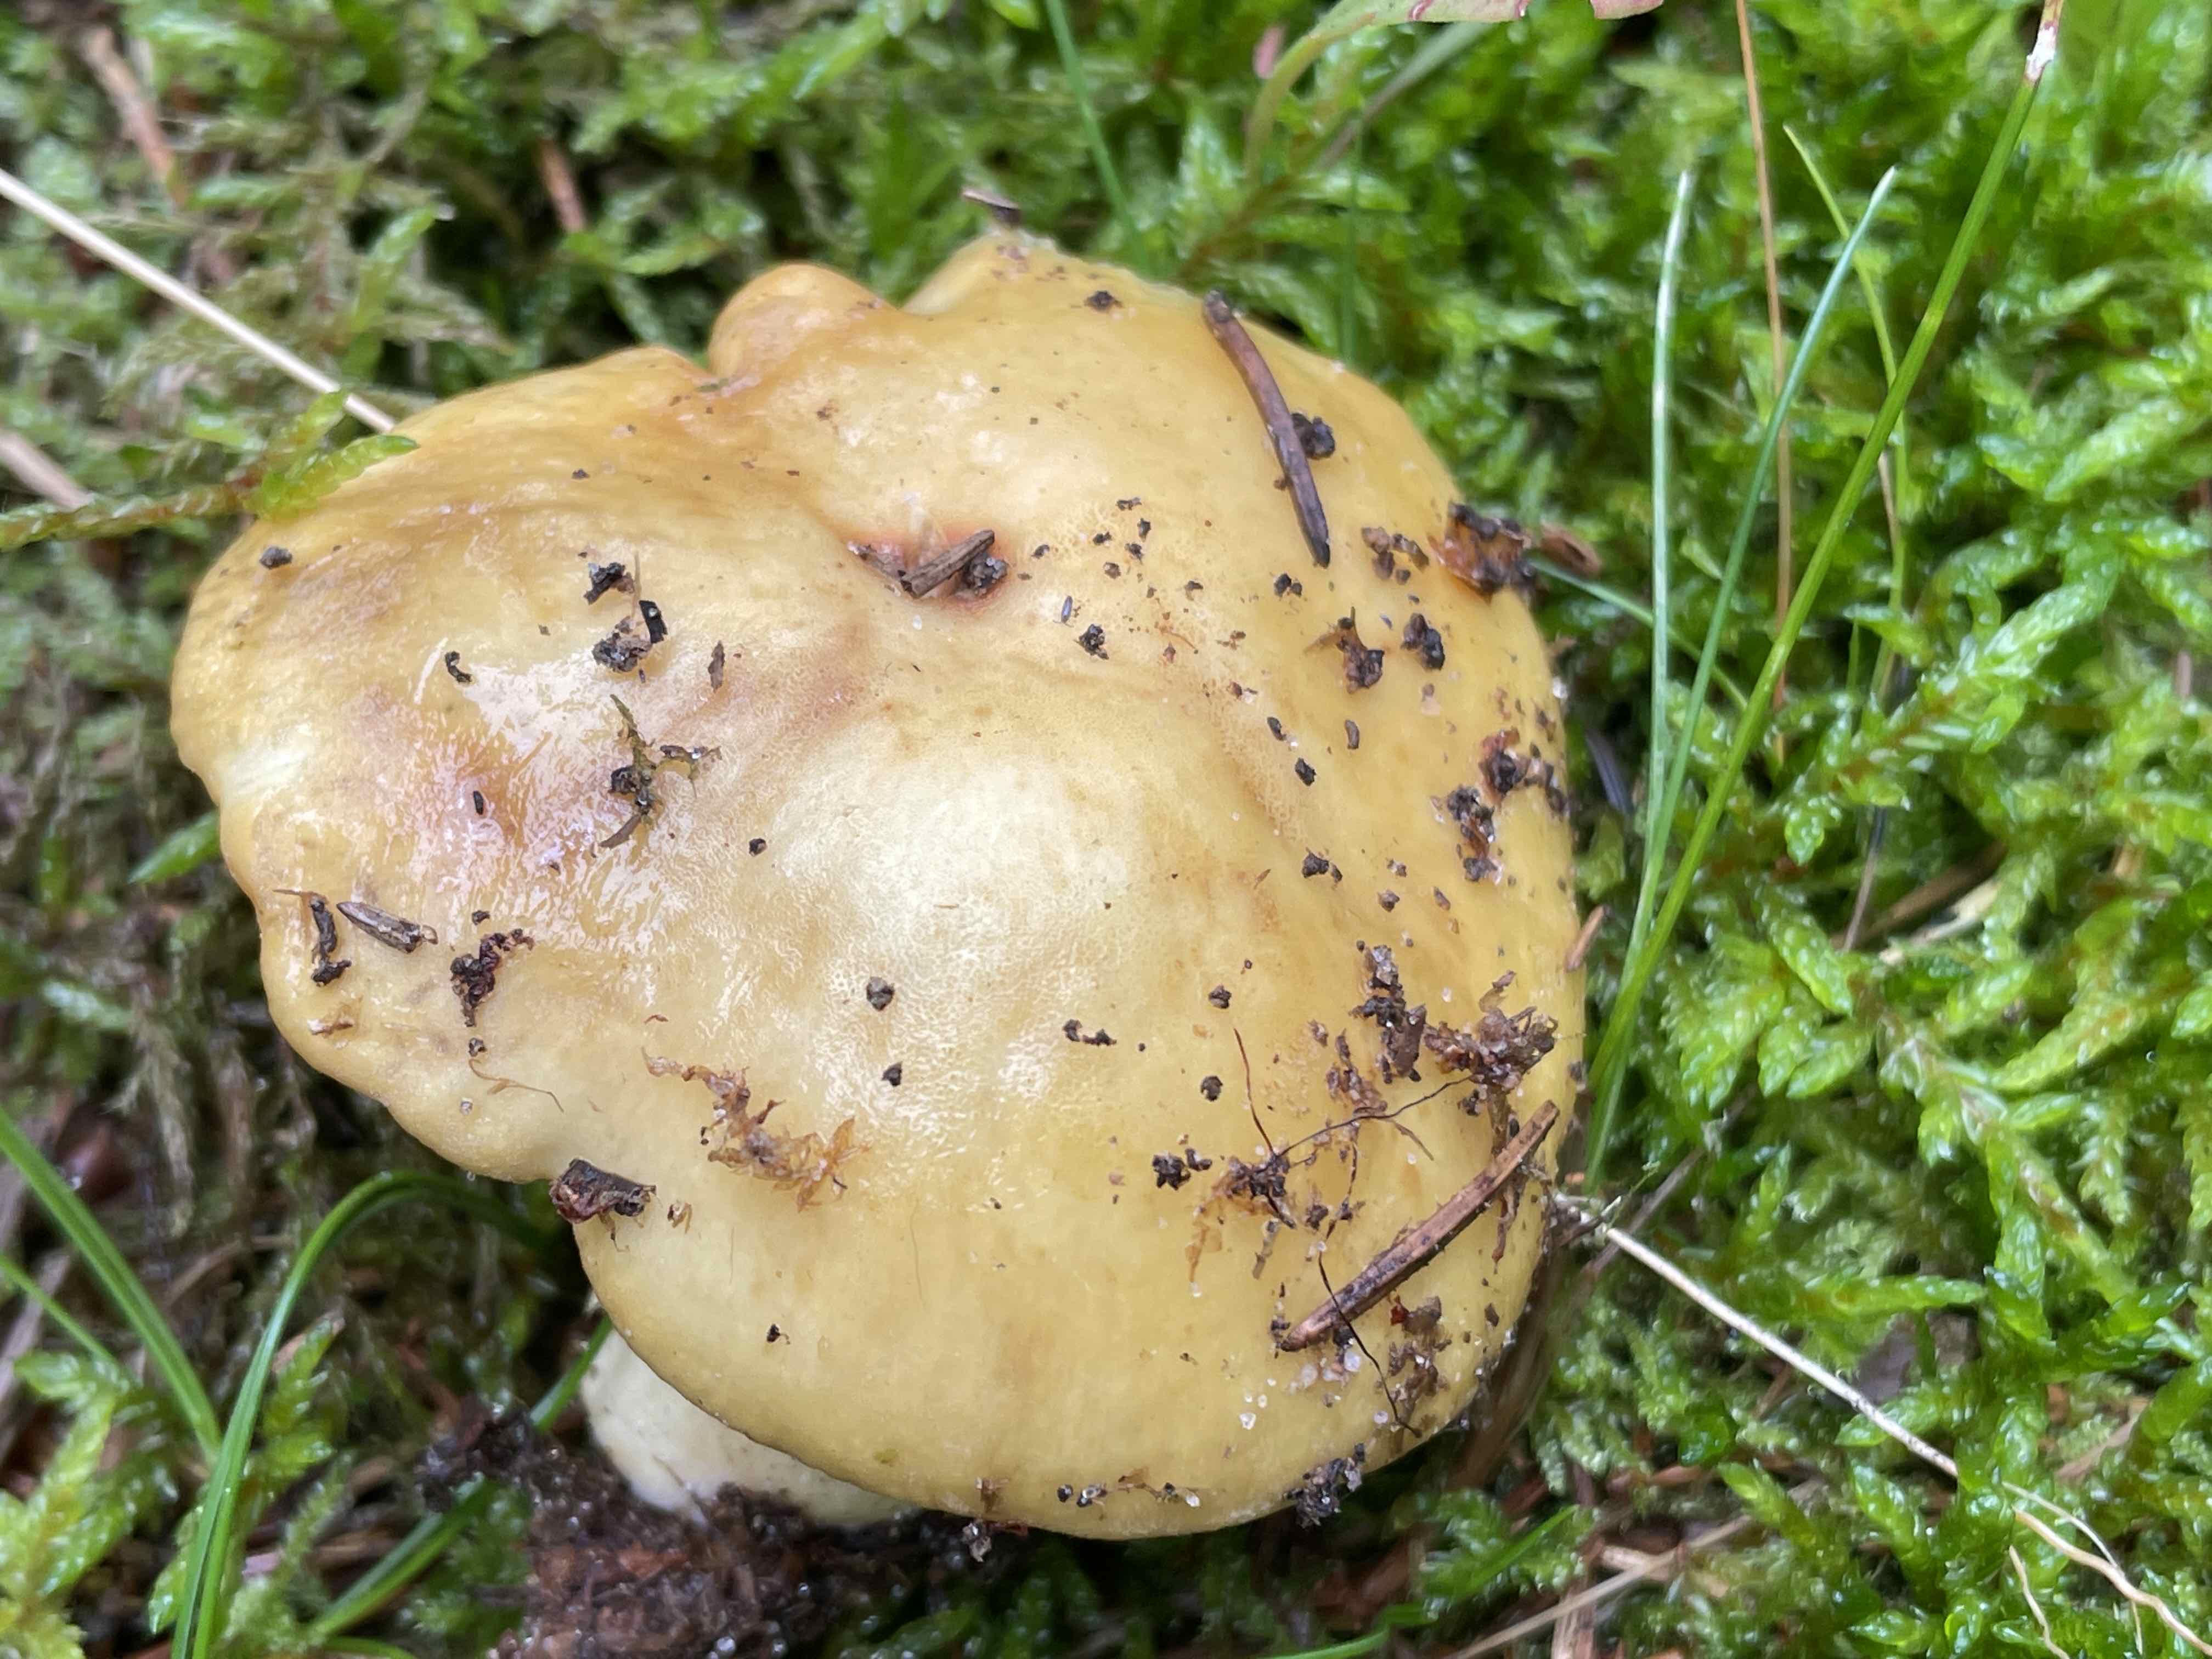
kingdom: Fungi
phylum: Basidiomycota
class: Agaricomycetes
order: Russulales
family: Russulaceae
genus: Russula
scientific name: Russula ochroleuca
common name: okkergul skørhat
